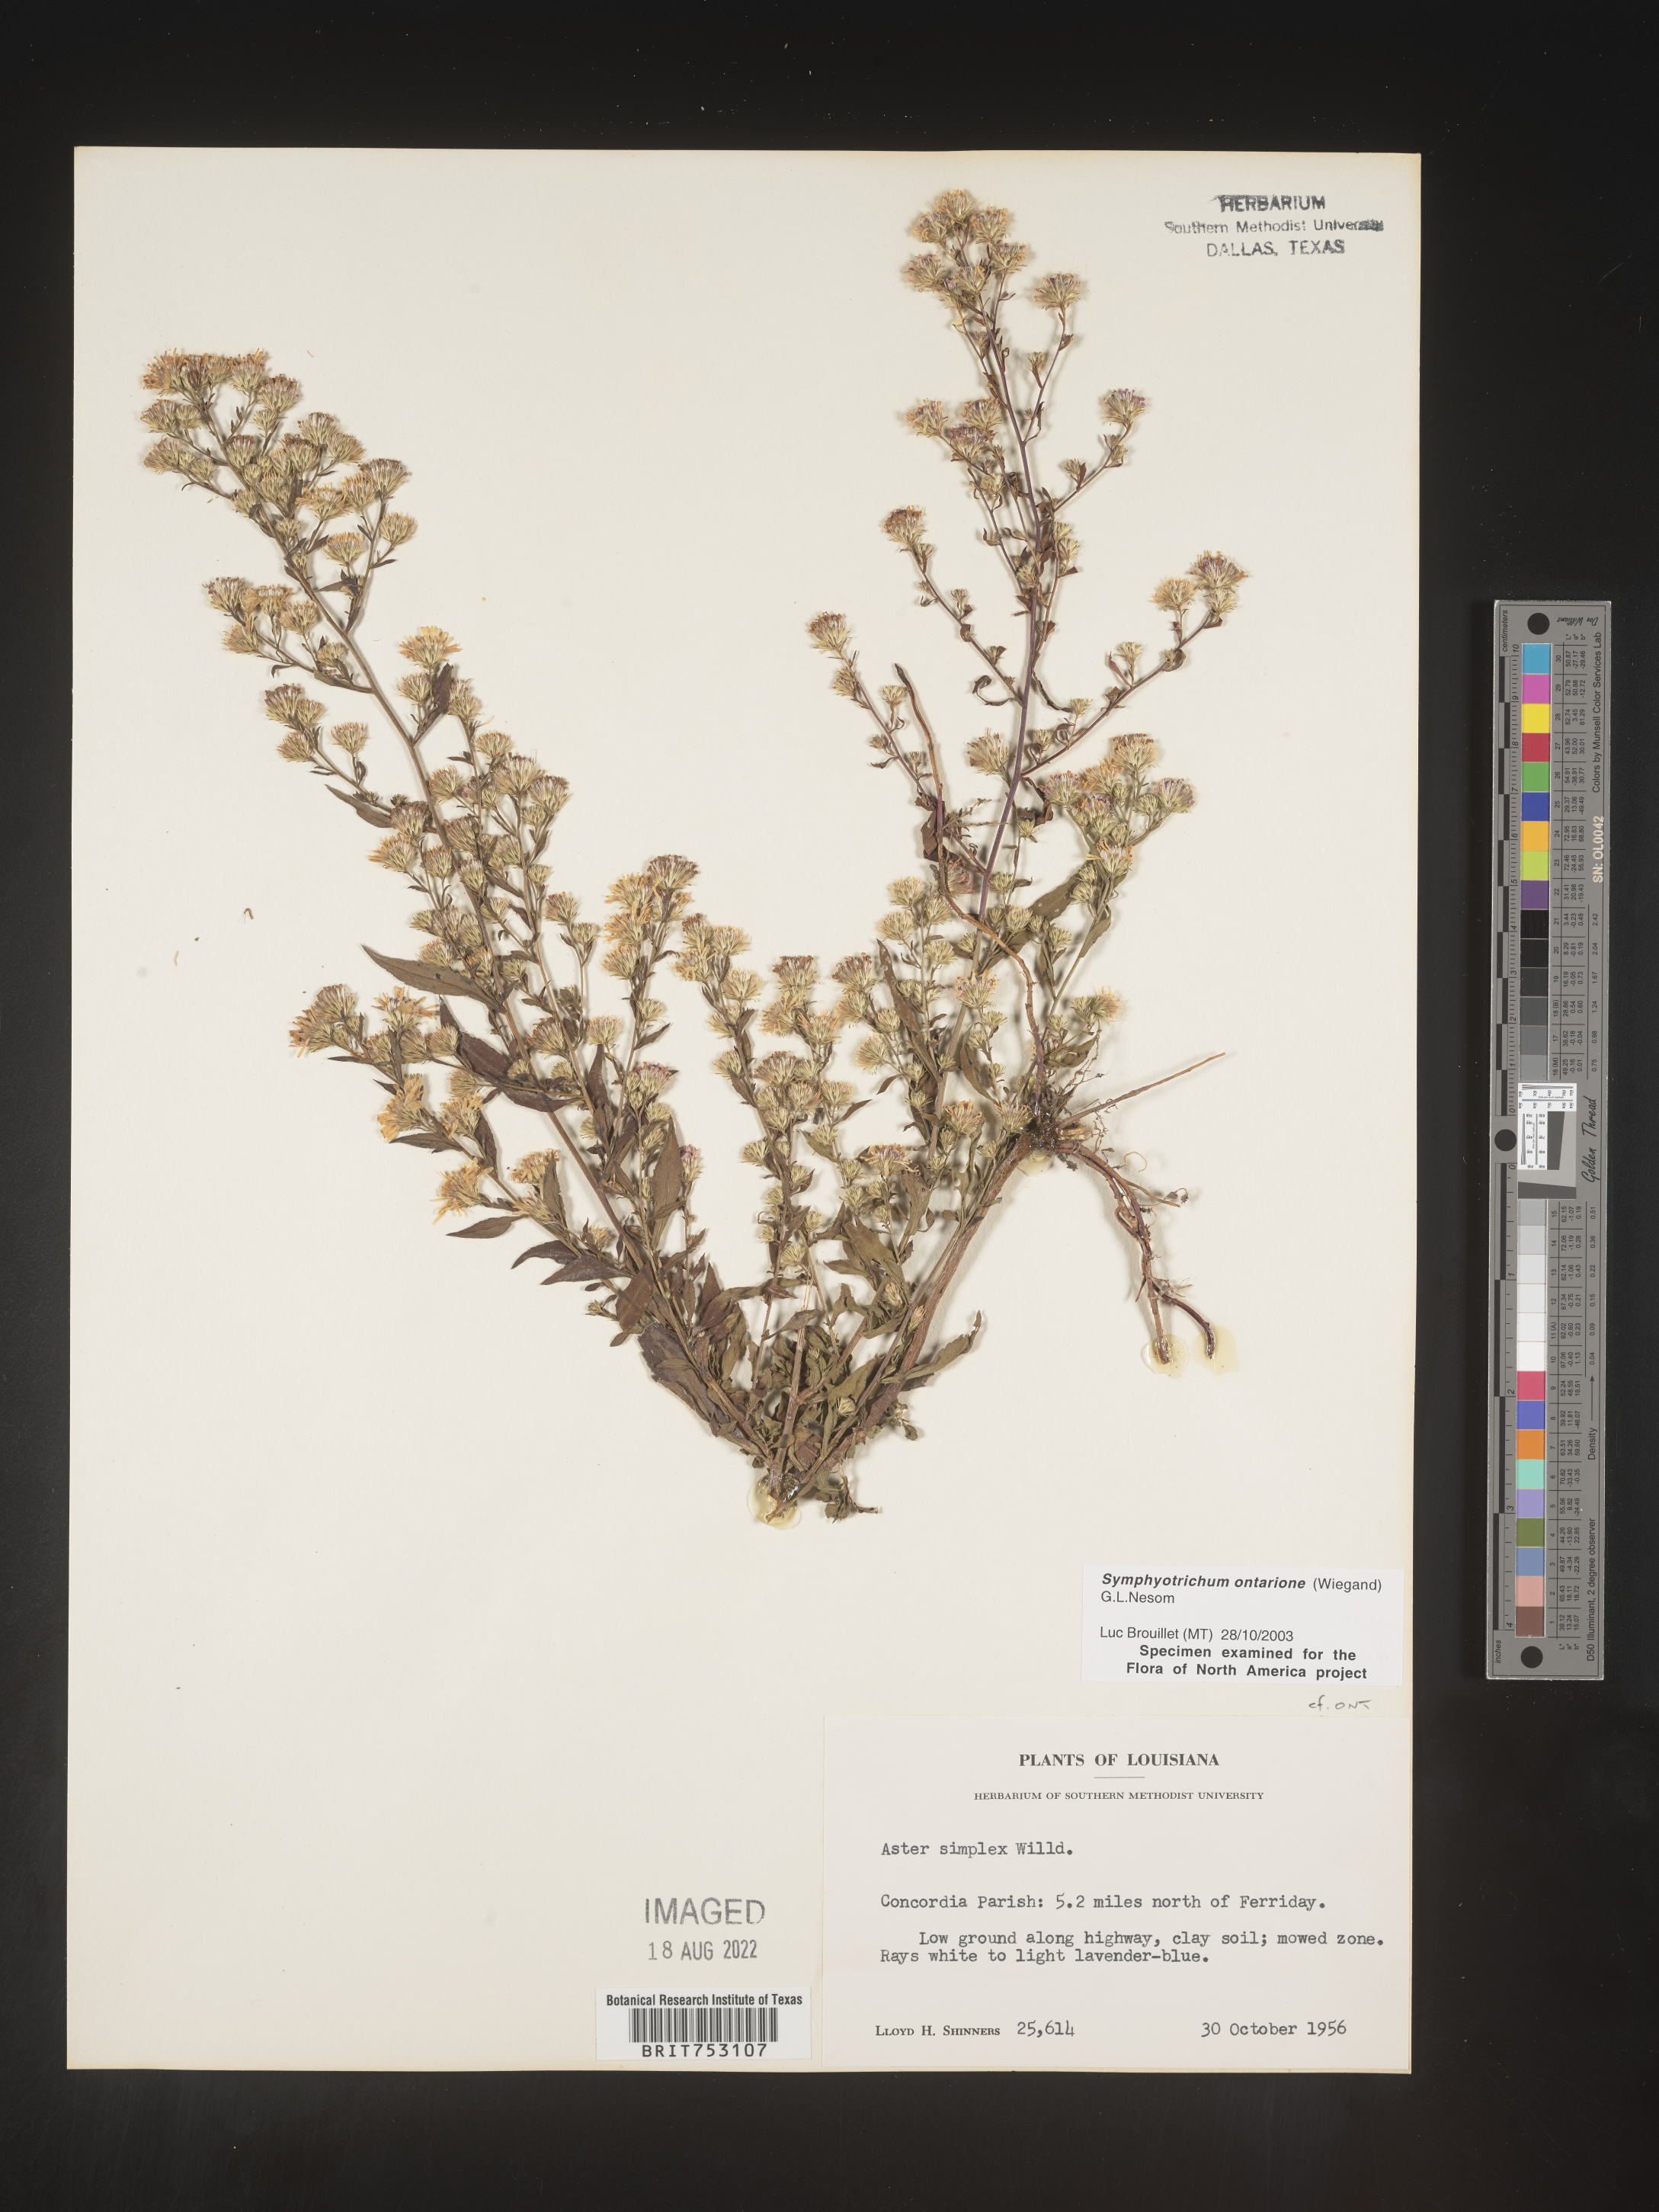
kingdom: Plantae
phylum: Tracheophyta
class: Magnoliopsida
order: Asterales
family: Asteraceae
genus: Symphyotrichum
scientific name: Symphyotrichum ontarionis
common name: Bottomland aster
